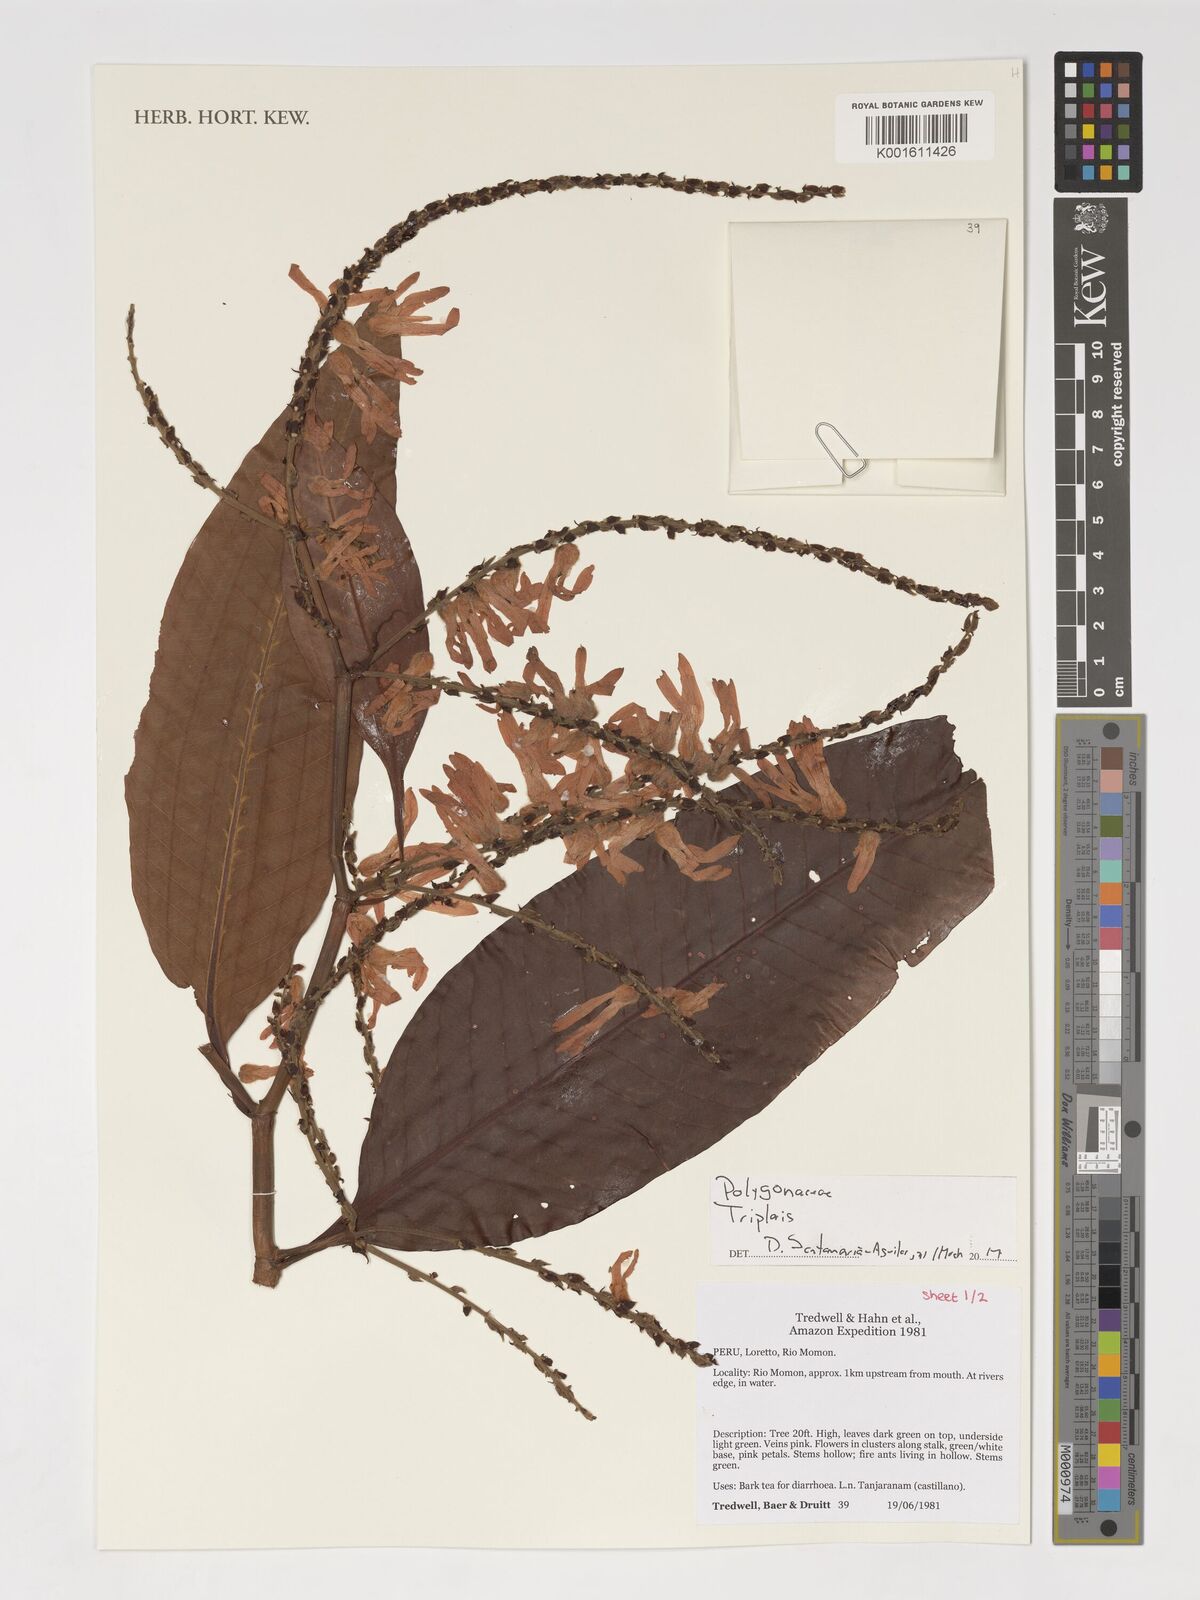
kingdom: Plantae
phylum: Tracheophyta
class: Magnoliopsida
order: Caryophyllales
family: Polygonaceae
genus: Triplaris
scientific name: Triplaris
